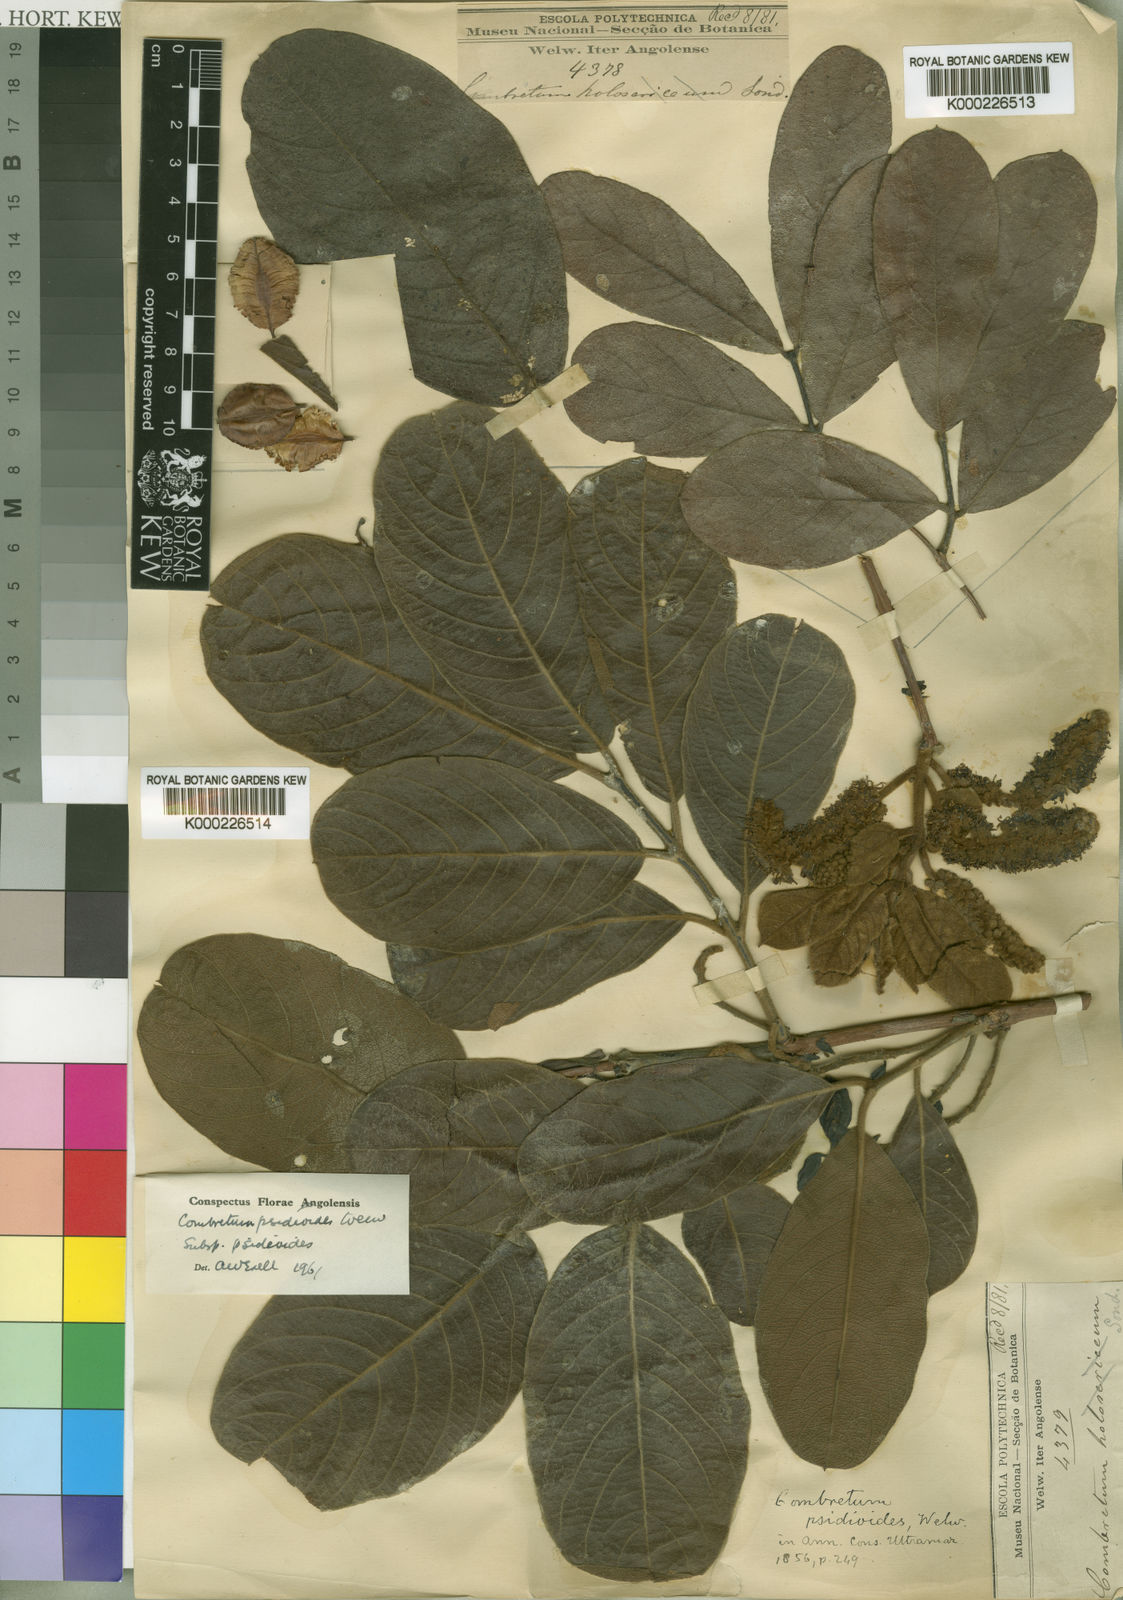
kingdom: Plantae
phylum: Tracheophyta
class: Magnoliopsida
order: Myrtales
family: Combretaceae
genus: Combretum
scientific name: Combretum psidioides
